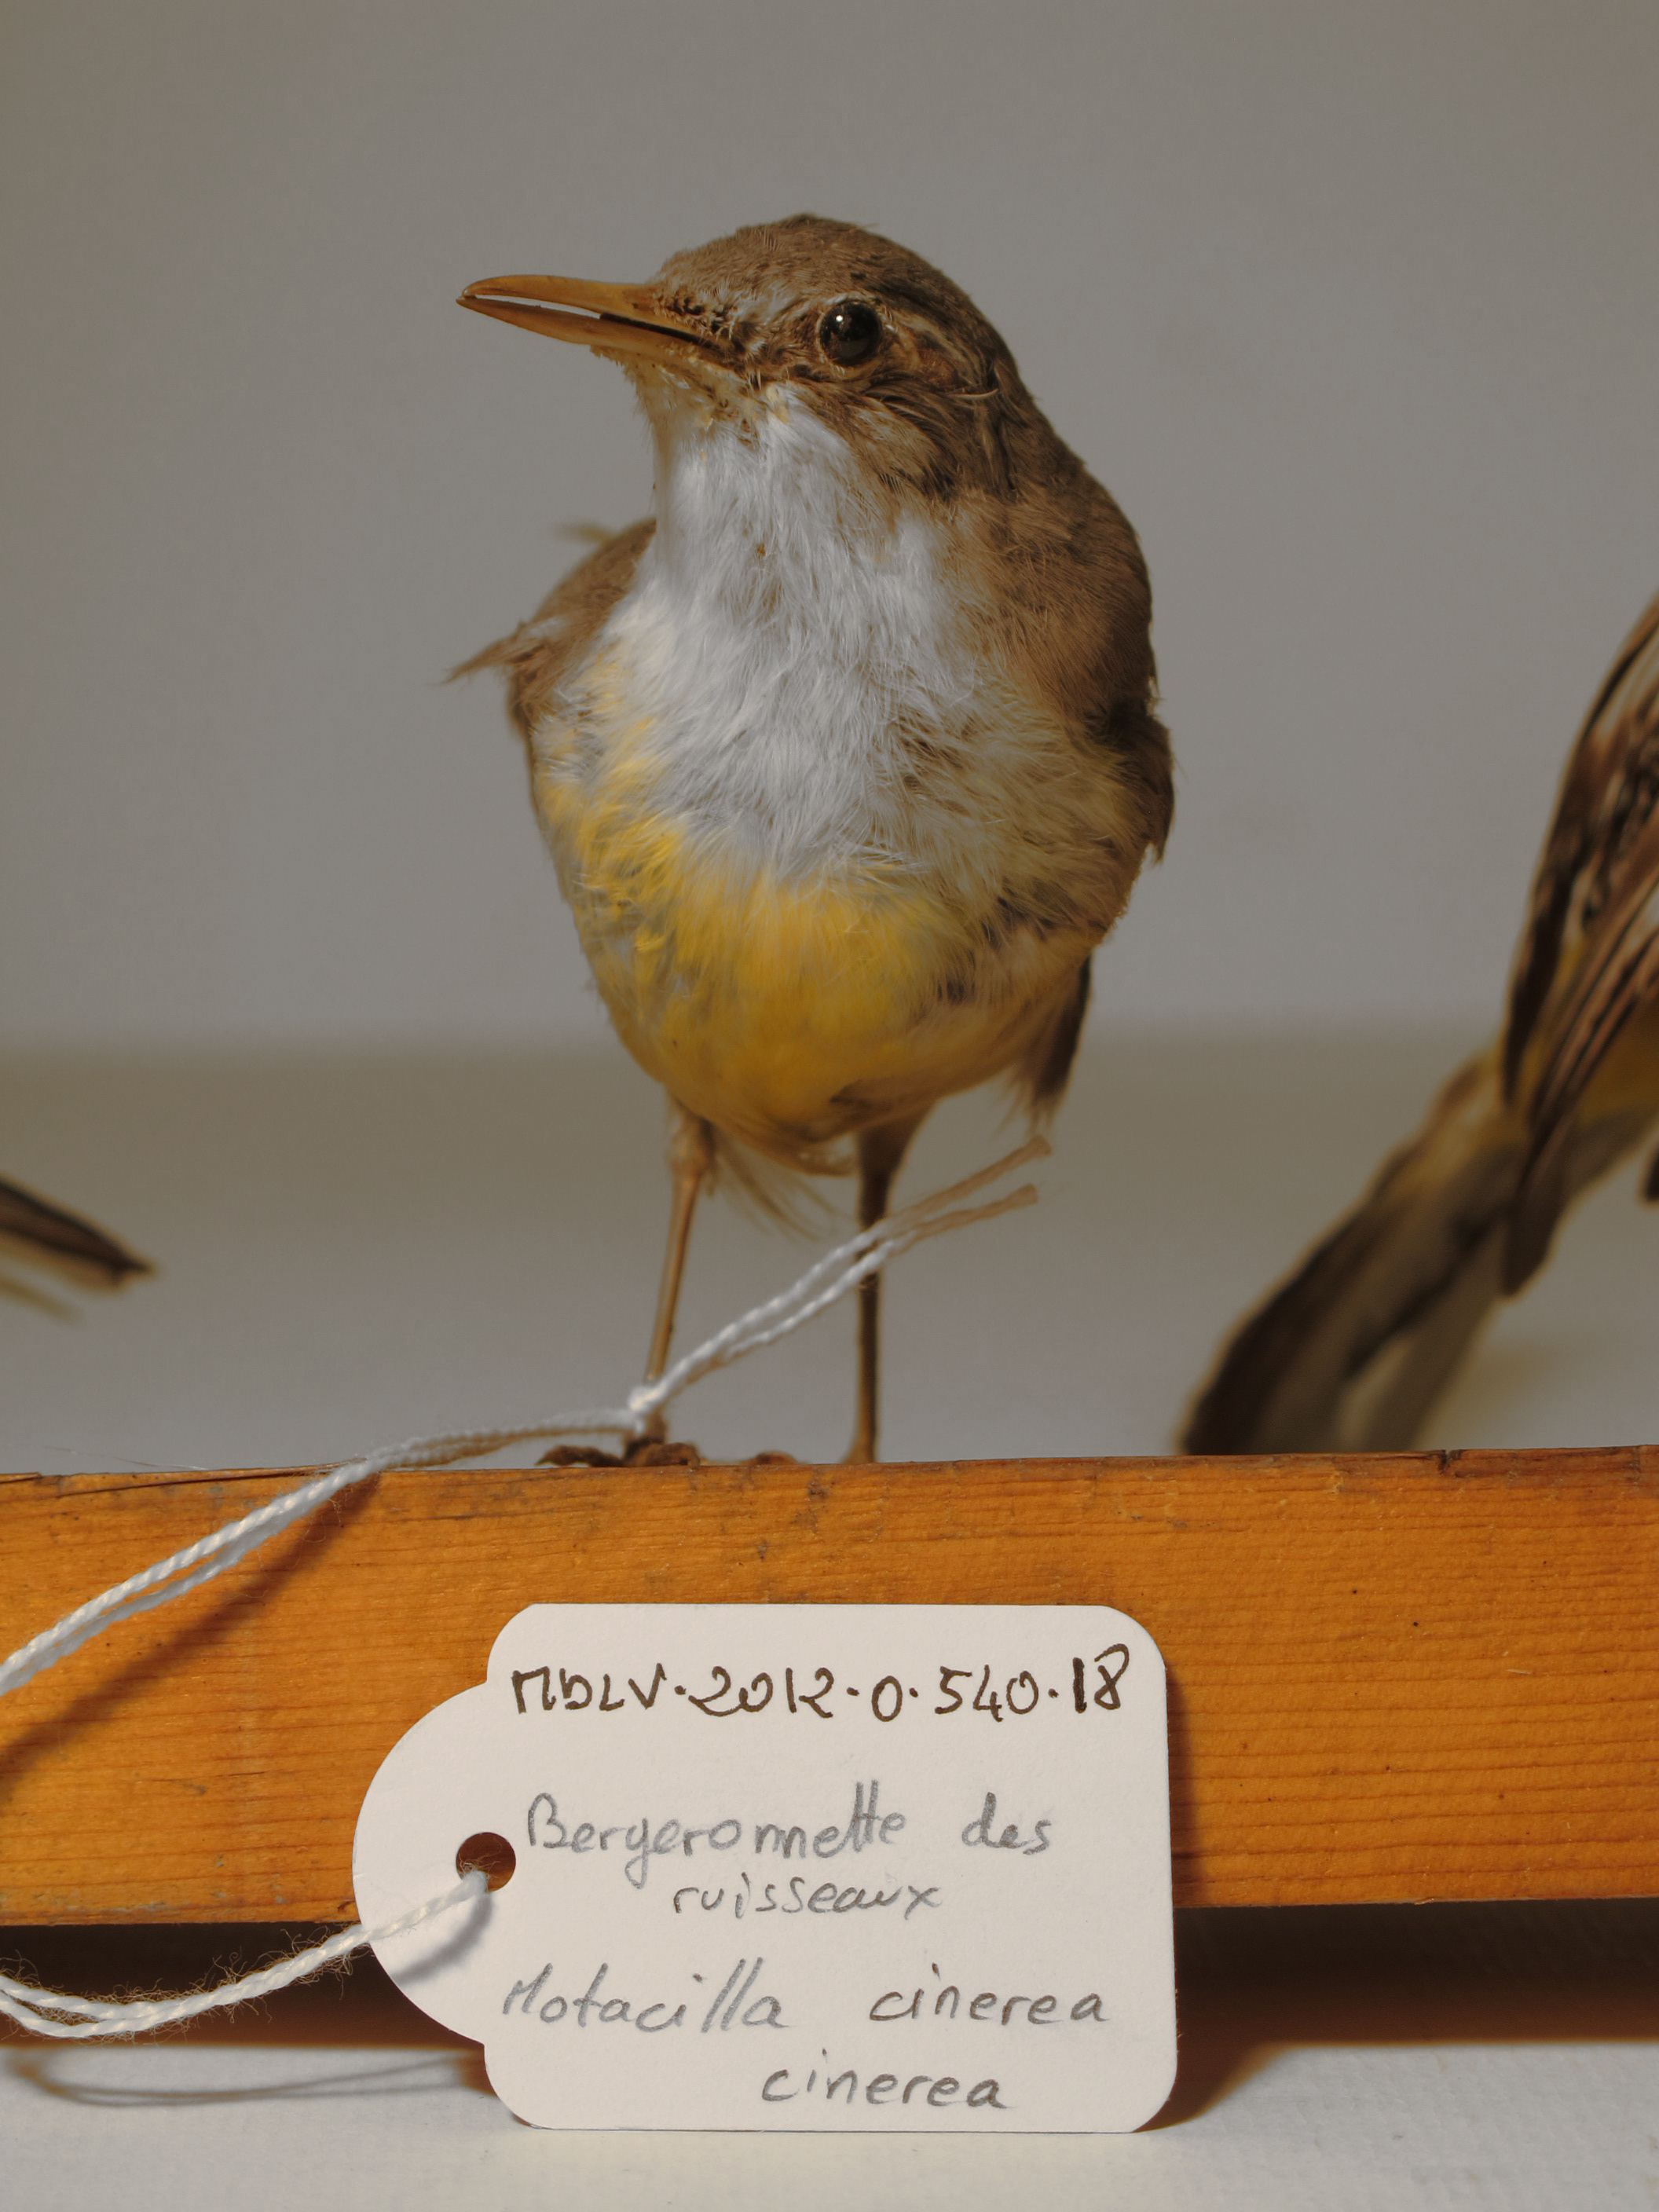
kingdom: Animalia
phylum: Chordata
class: Aves
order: Passeriformes
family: Motacillidae
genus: Motacilla
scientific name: Motacilla cinerea
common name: Grey Wagtail
